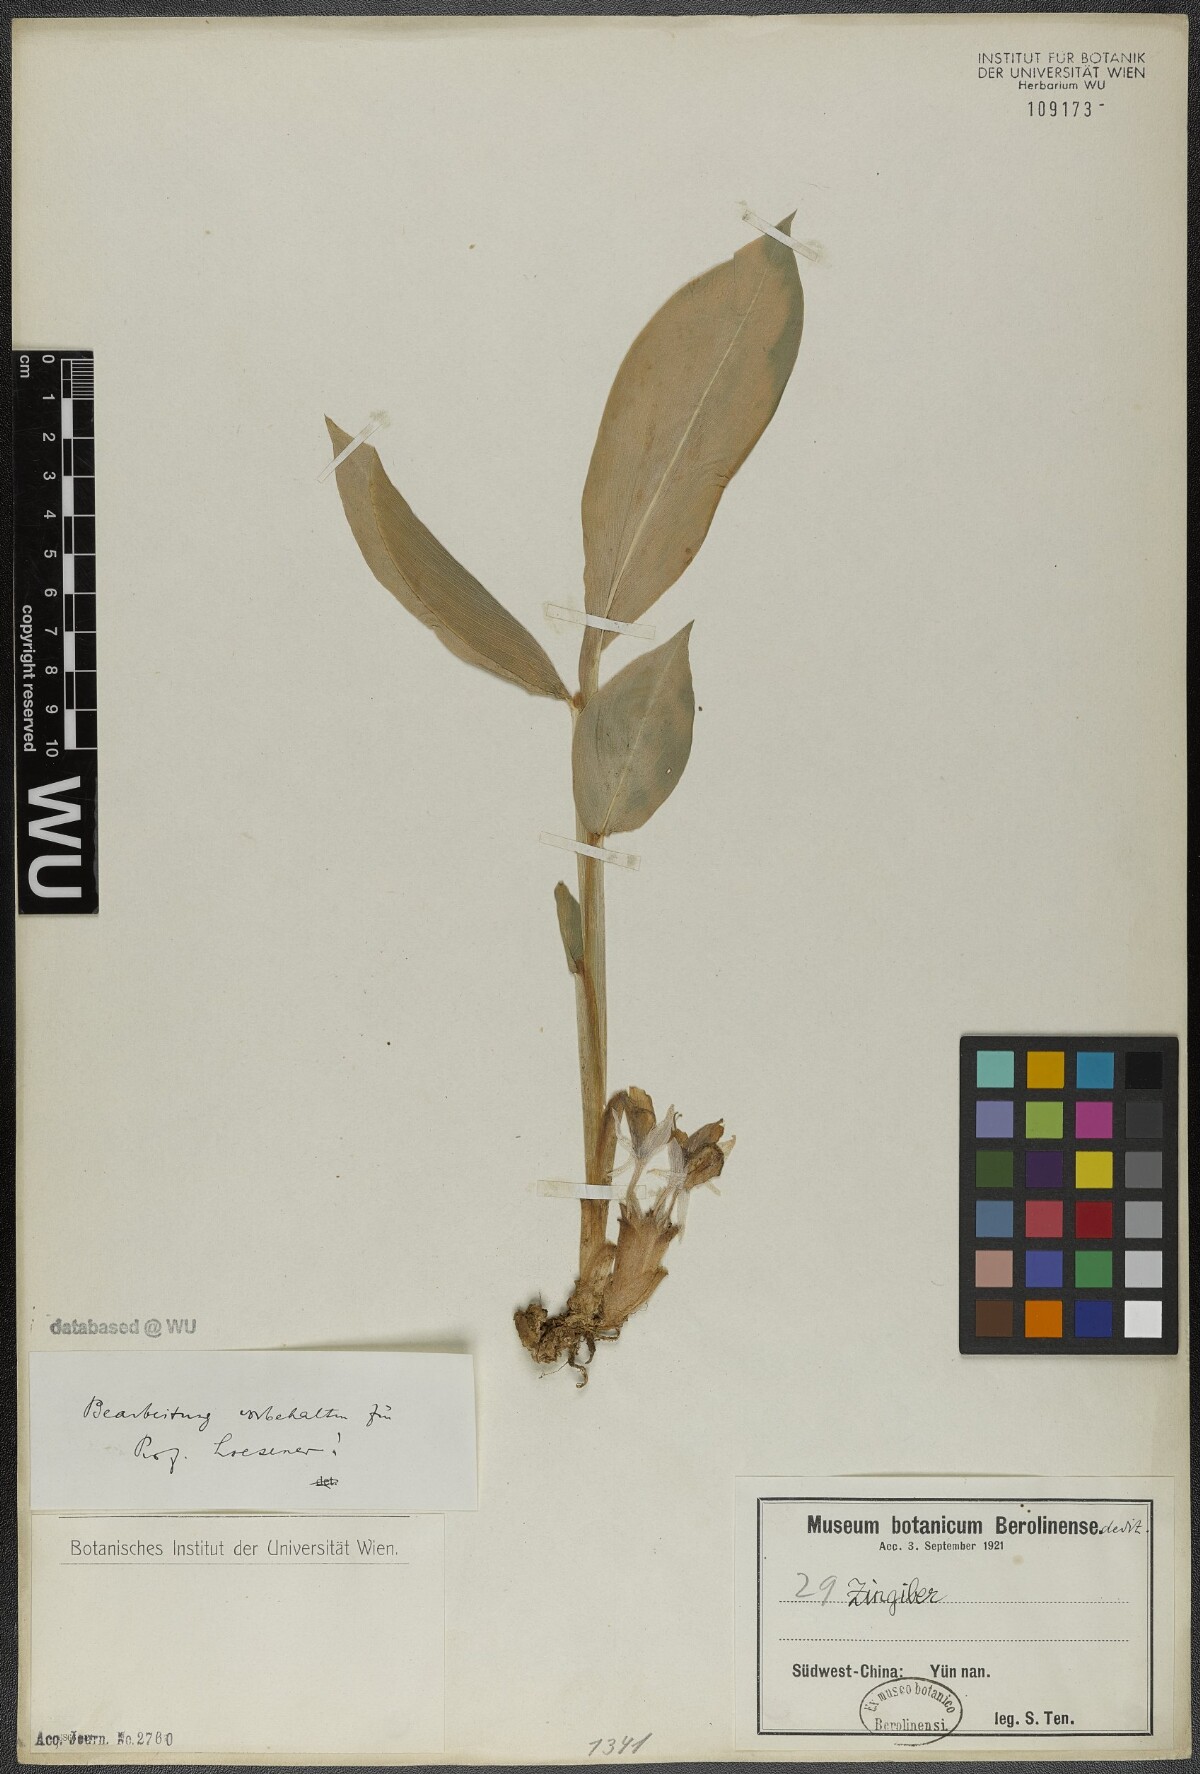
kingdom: Plantae
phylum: Tracheophyta
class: Liliopsida
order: Zingiberales
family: Zingiberaceae
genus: Zingiber
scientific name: Zingiber
